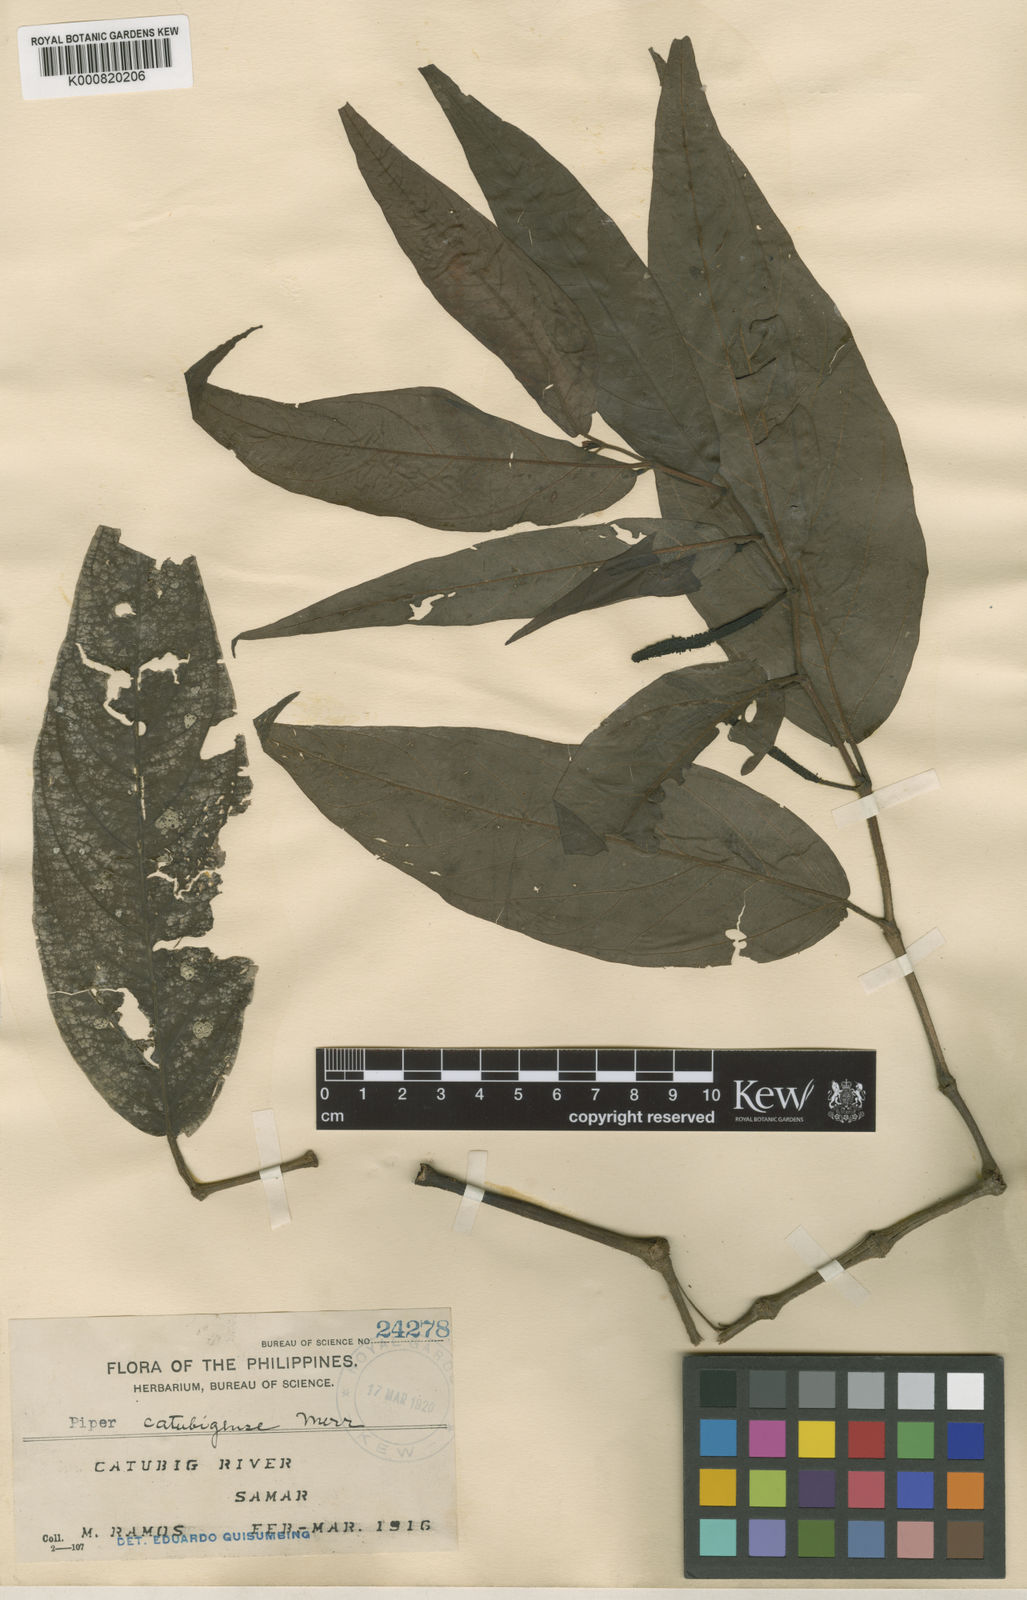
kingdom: Plantae
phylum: Tracheophyta
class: Magnoliopsida
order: Piperales
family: Piperaceae
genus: Piper
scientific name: Piper celtidiforme
